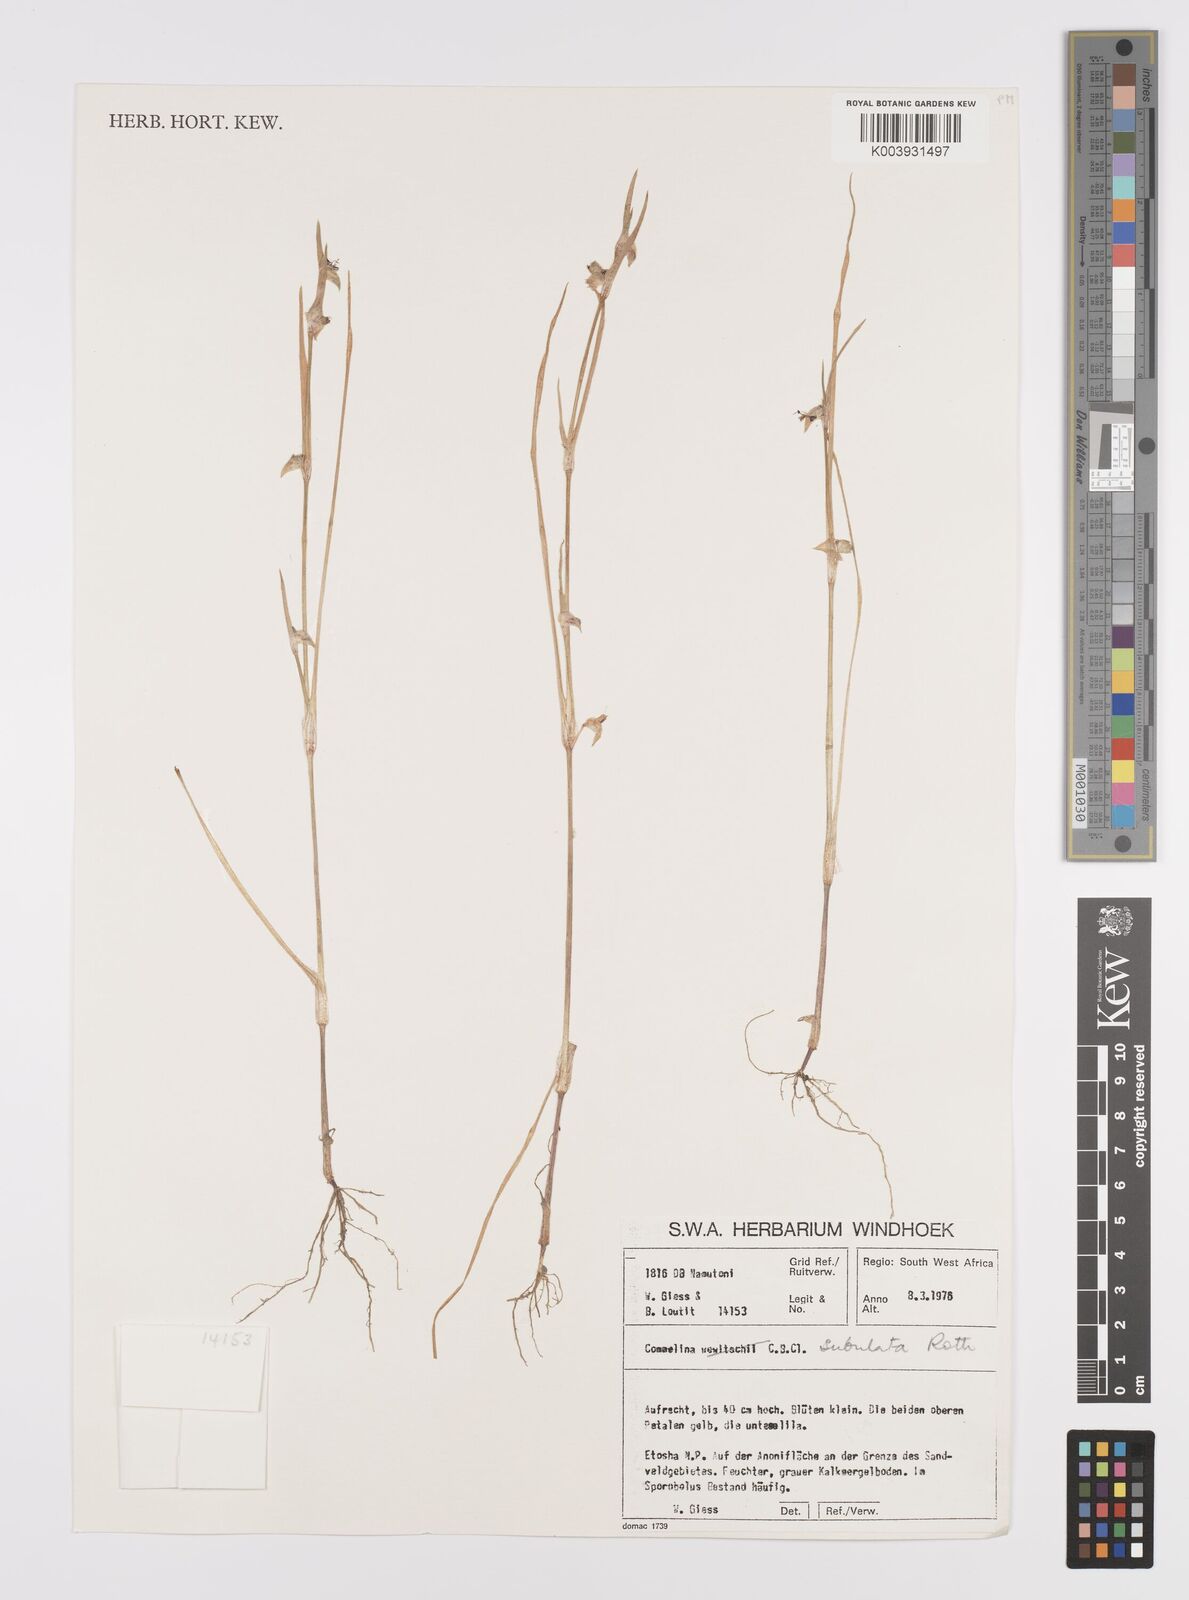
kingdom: Plantae
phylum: Tracheophyta
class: Liliopsida
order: Commelinales
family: Commelinaceae
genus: Commelina
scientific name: Commelina subulata
